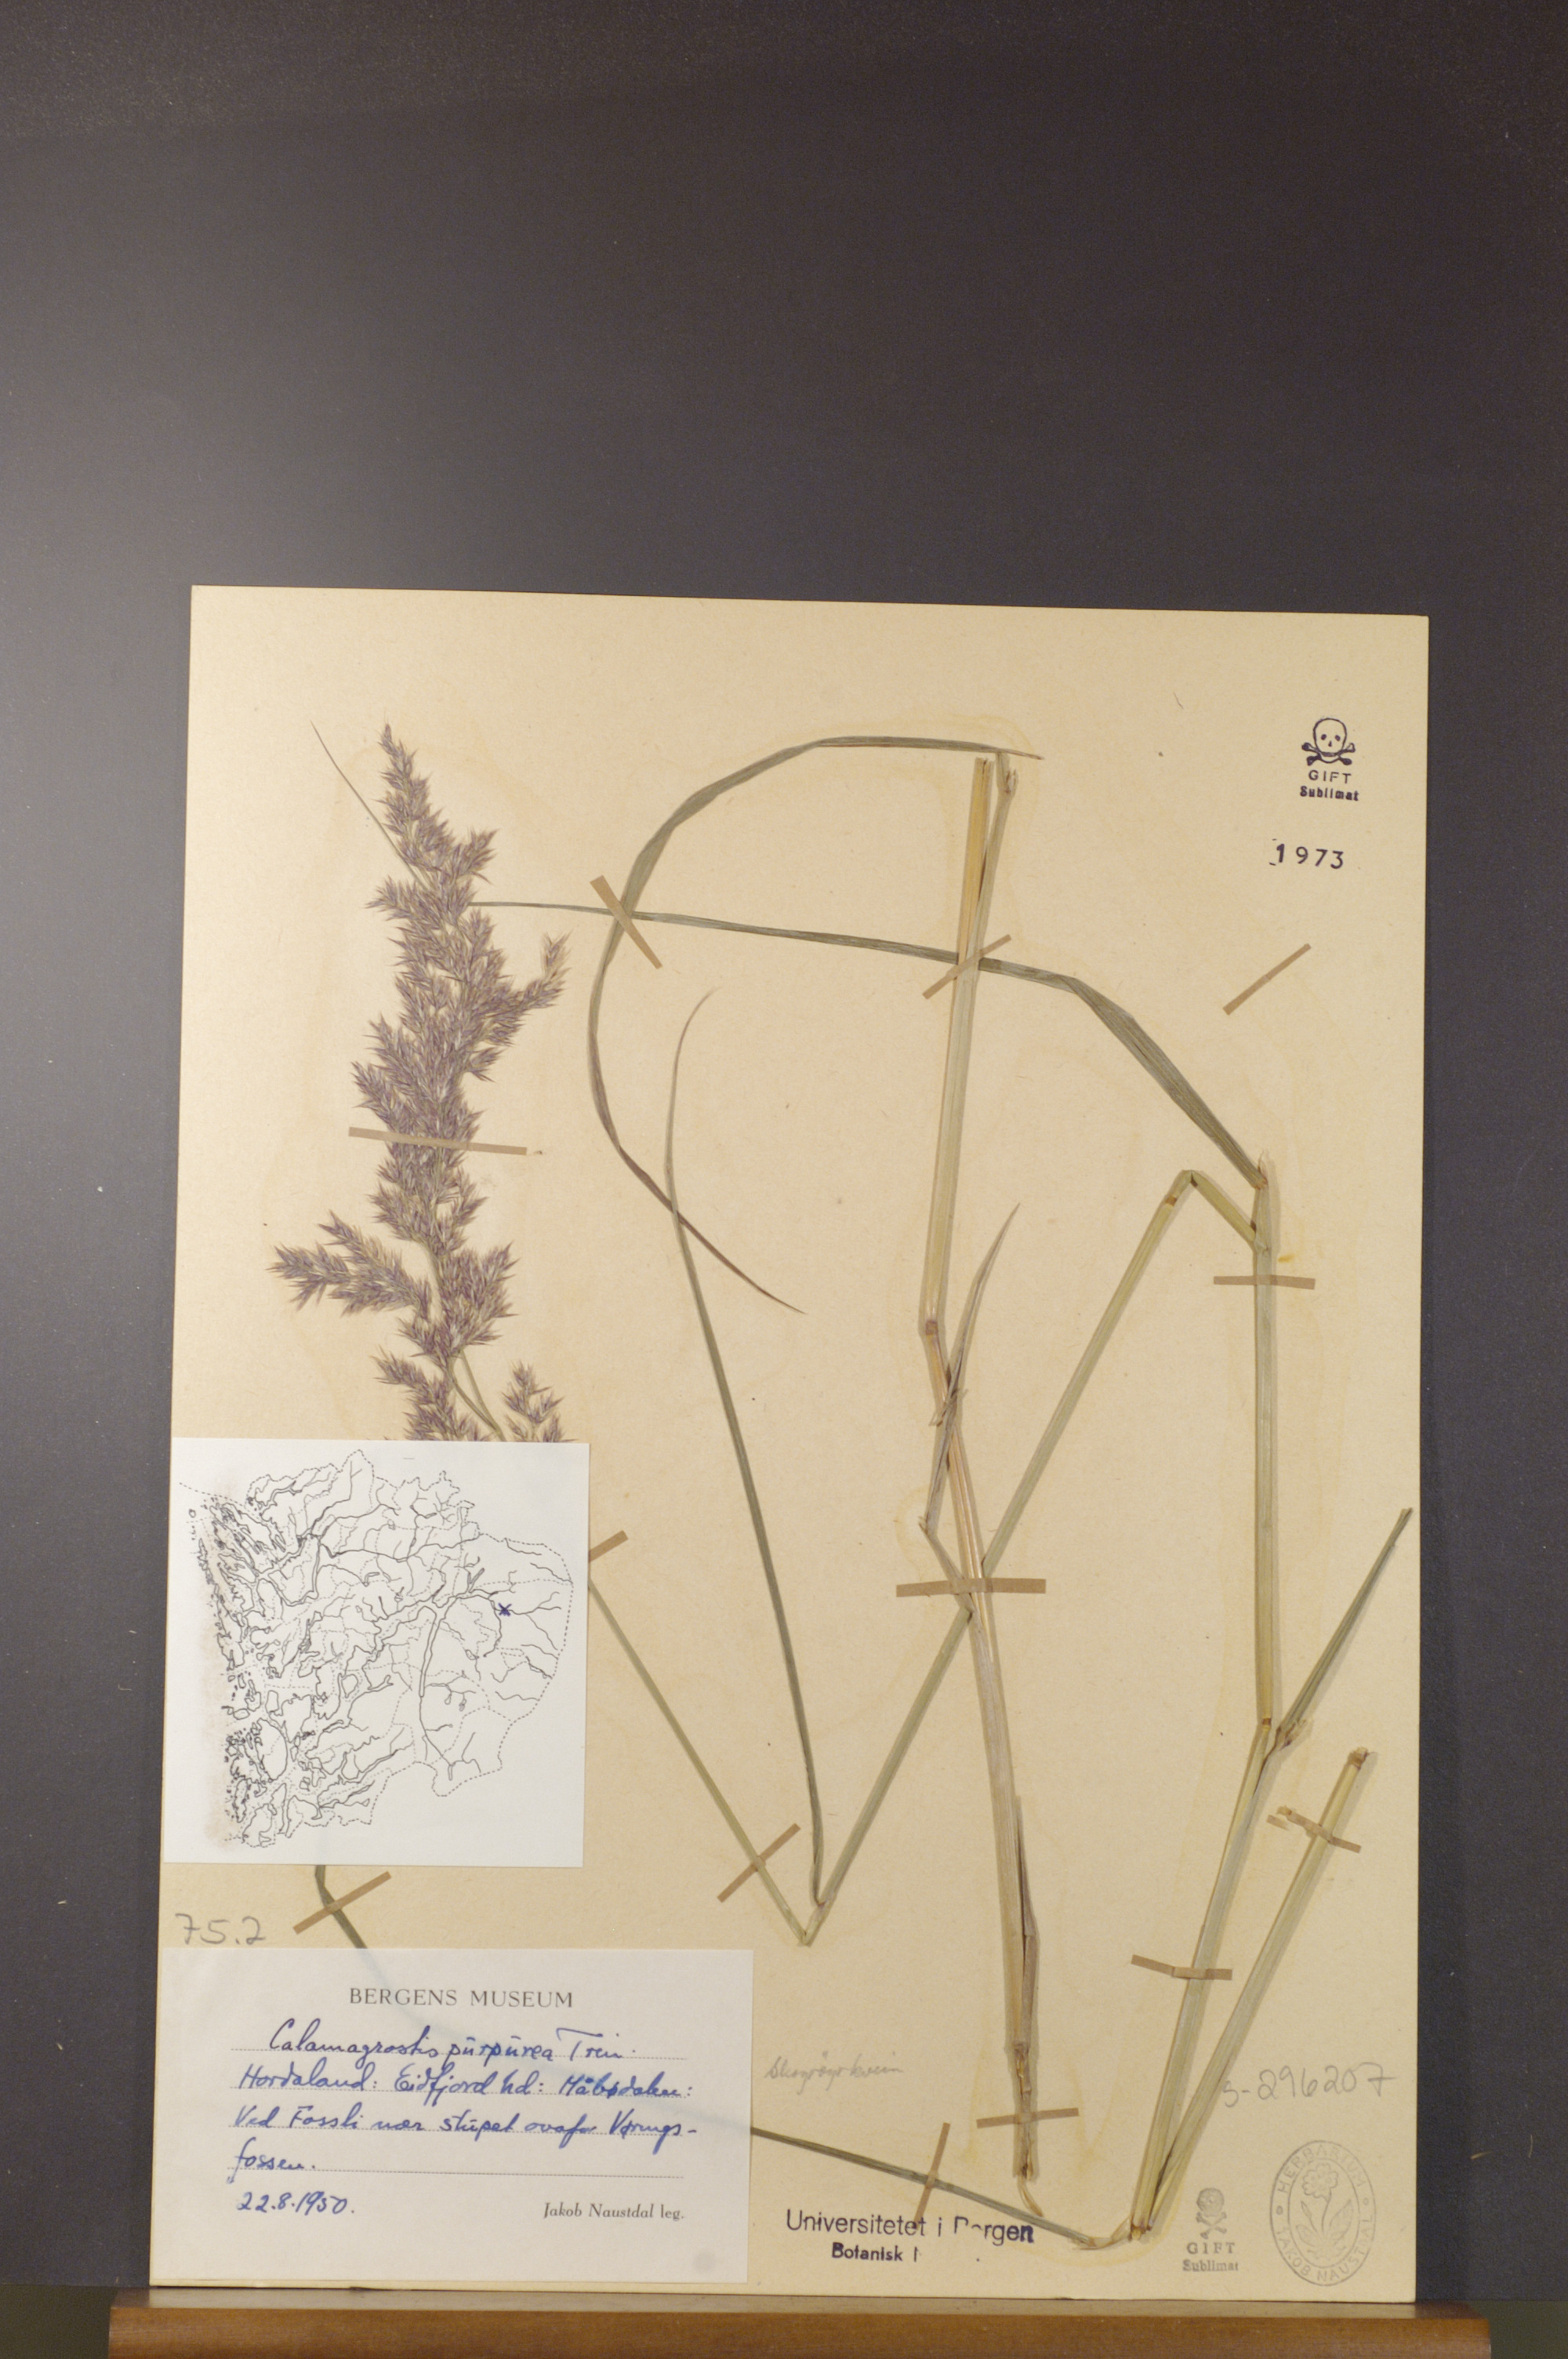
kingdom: Plantae
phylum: Tracheophyta
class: Liliopsida
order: Poales
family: Poaceae
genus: Calamagrostis
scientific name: Calamagrostis purpurea
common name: Scandinavian small-reed
